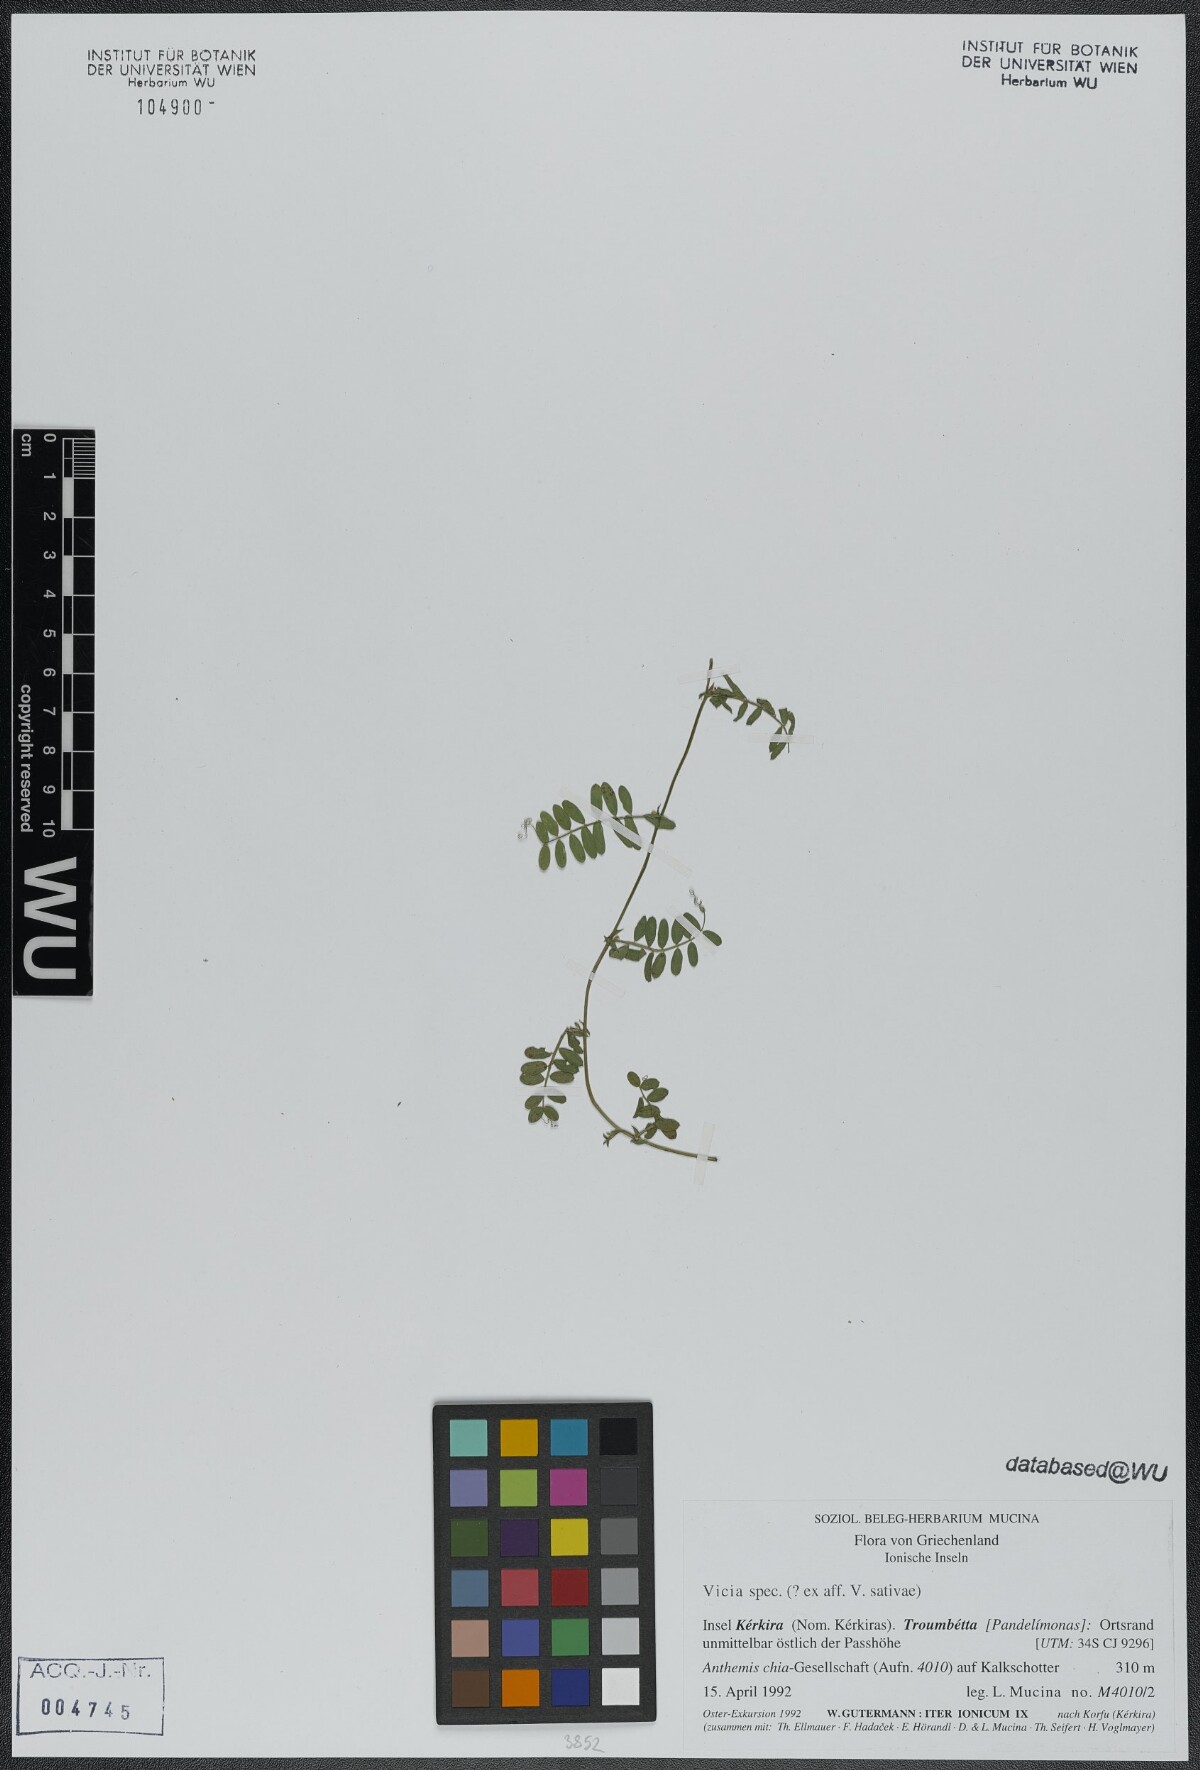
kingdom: Plantae
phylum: Tracheophyta
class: Magnoliopsida
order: Fabales
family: Fabaceae
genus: Vicia
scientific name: Vicia sativa
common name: Garden vetch
